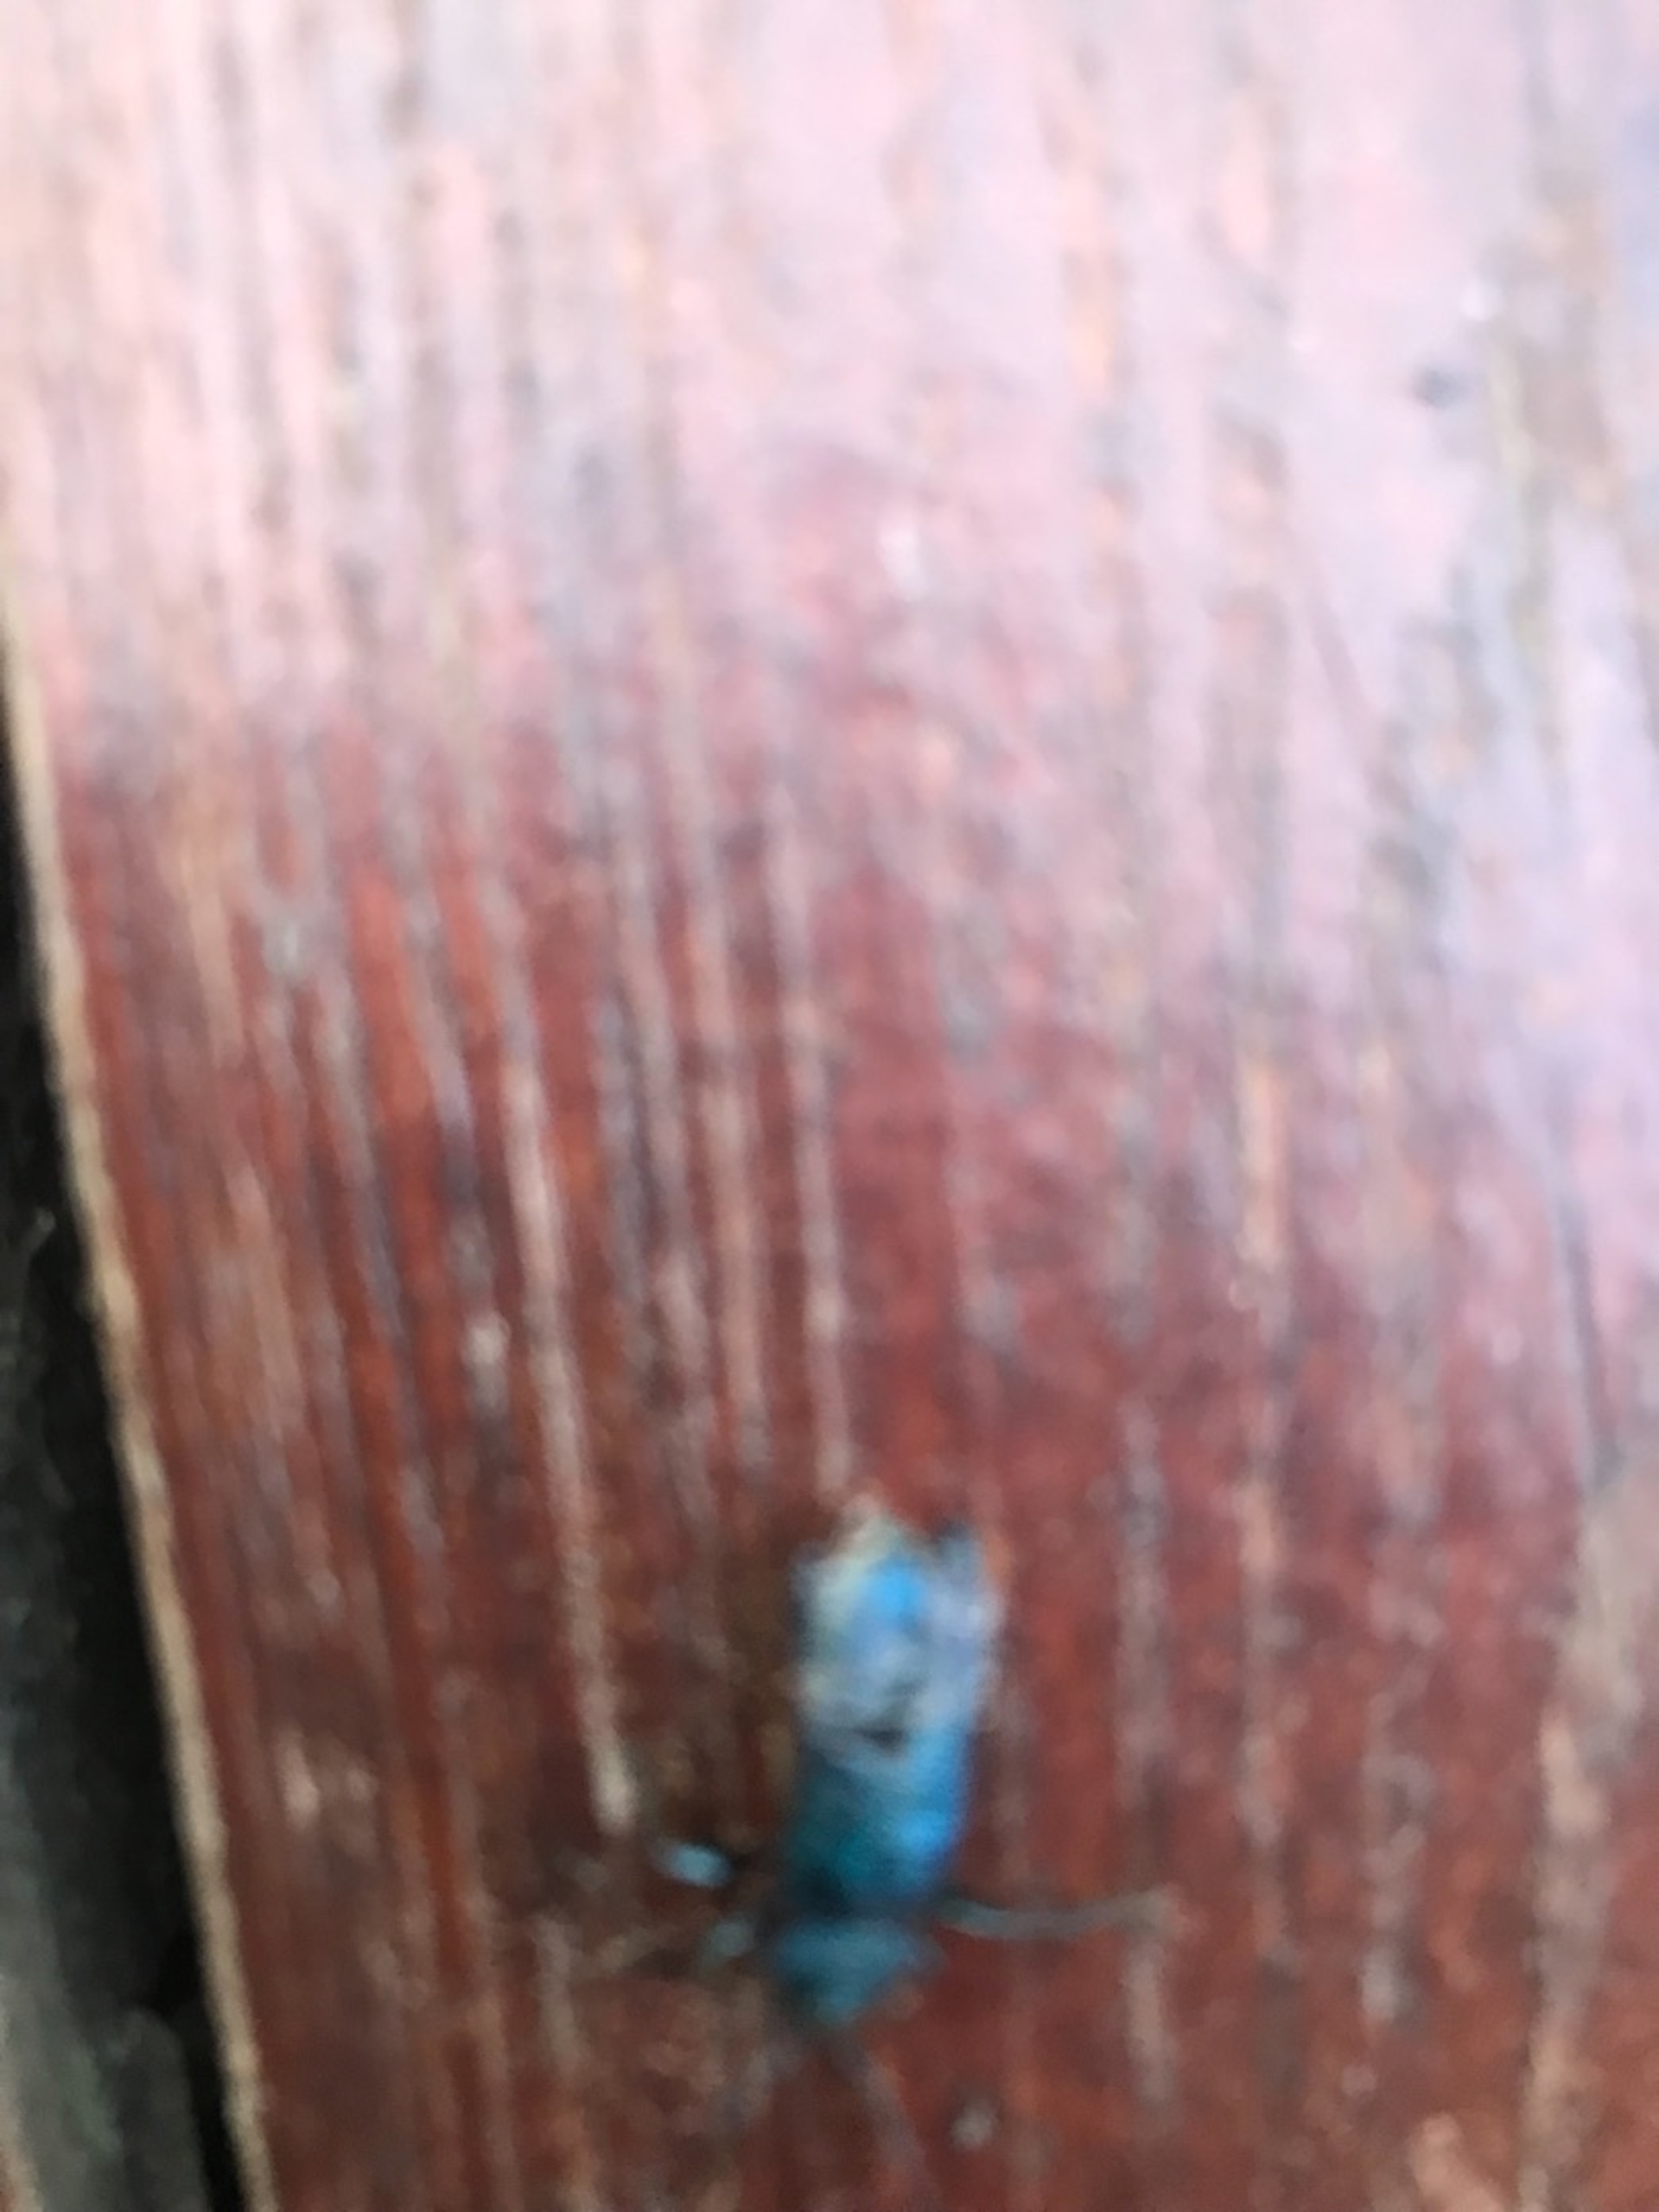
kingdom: Animalia
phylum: Arthropoda
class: Insecta
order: Coleoptera
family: Cerambycidae
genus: Agapanthia
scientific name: Agapanthia violacea
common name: Violbuk
